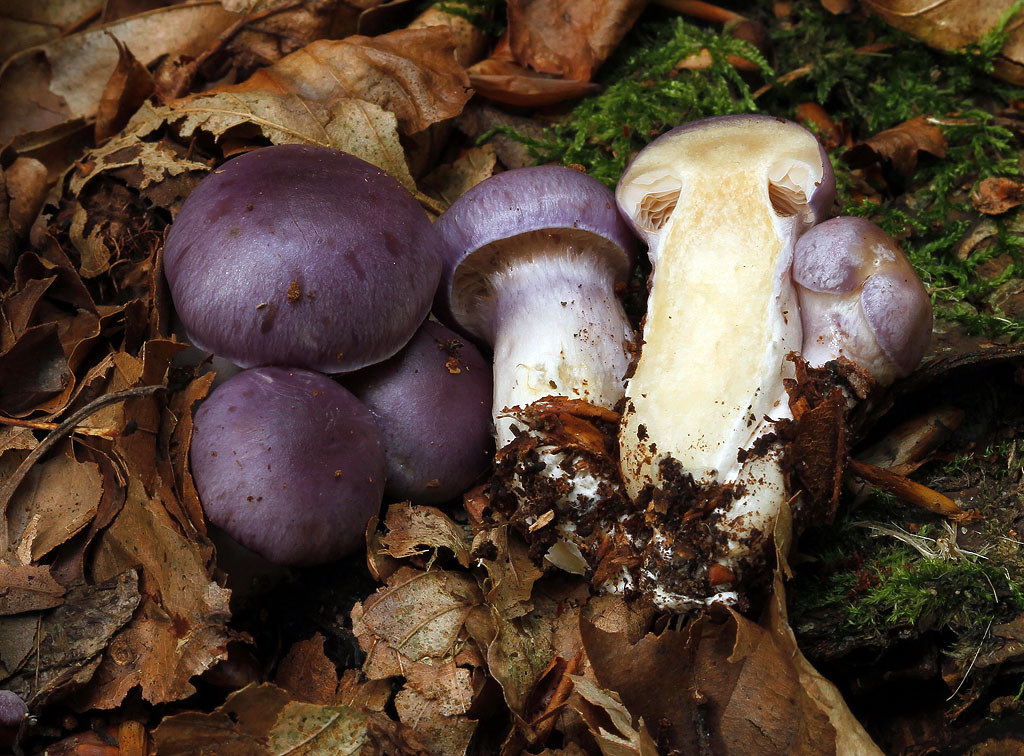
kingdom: Fungi
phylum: Basidiomycota
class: Agaricomycetes
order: Agaricales
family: Cortinariaceae
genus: Thaxterogaster
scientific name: Thaxterogaster croceocoeruleus
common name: blågullig slørhat
